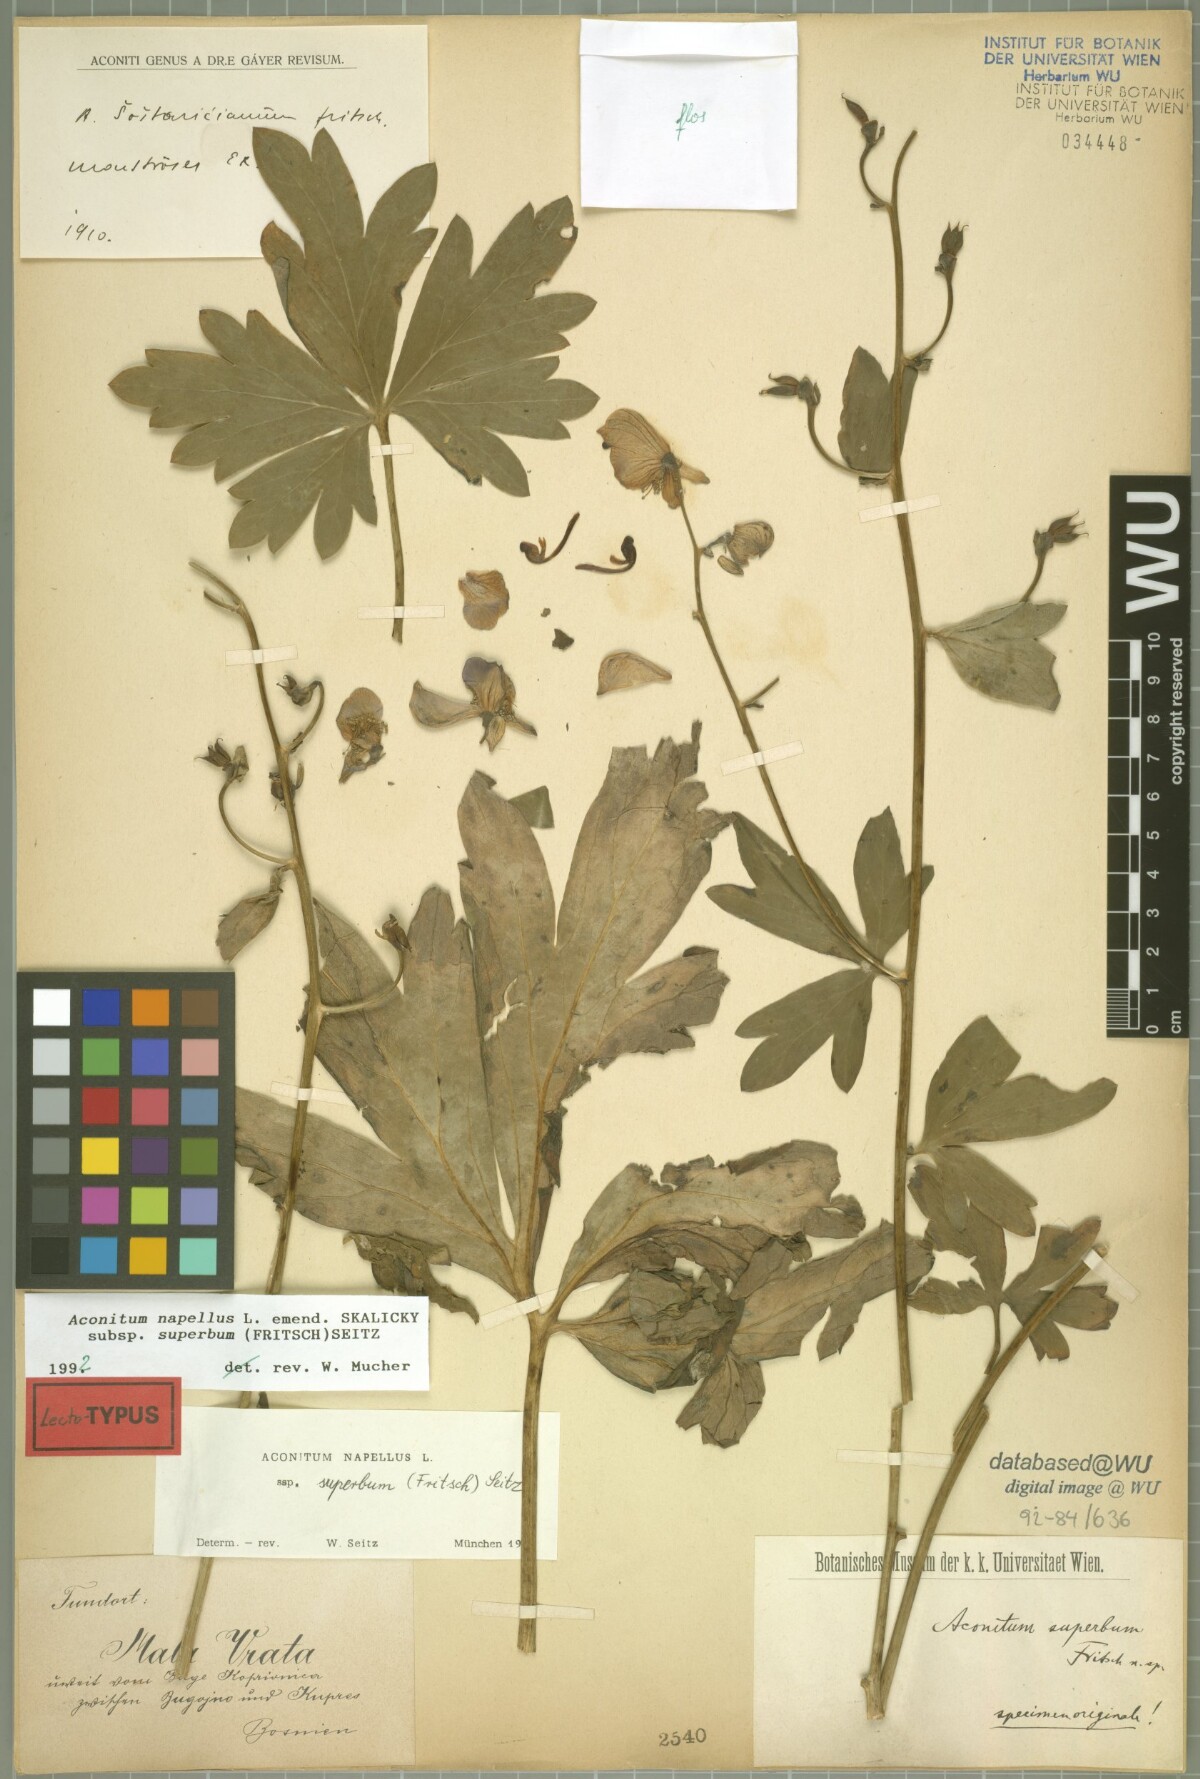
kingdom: Plantae
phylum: Tracheophyta
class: Magnoliopsida
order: Ranunculales
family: Ranunculaceae
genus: Aconitum
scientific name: Aconitum superbum
